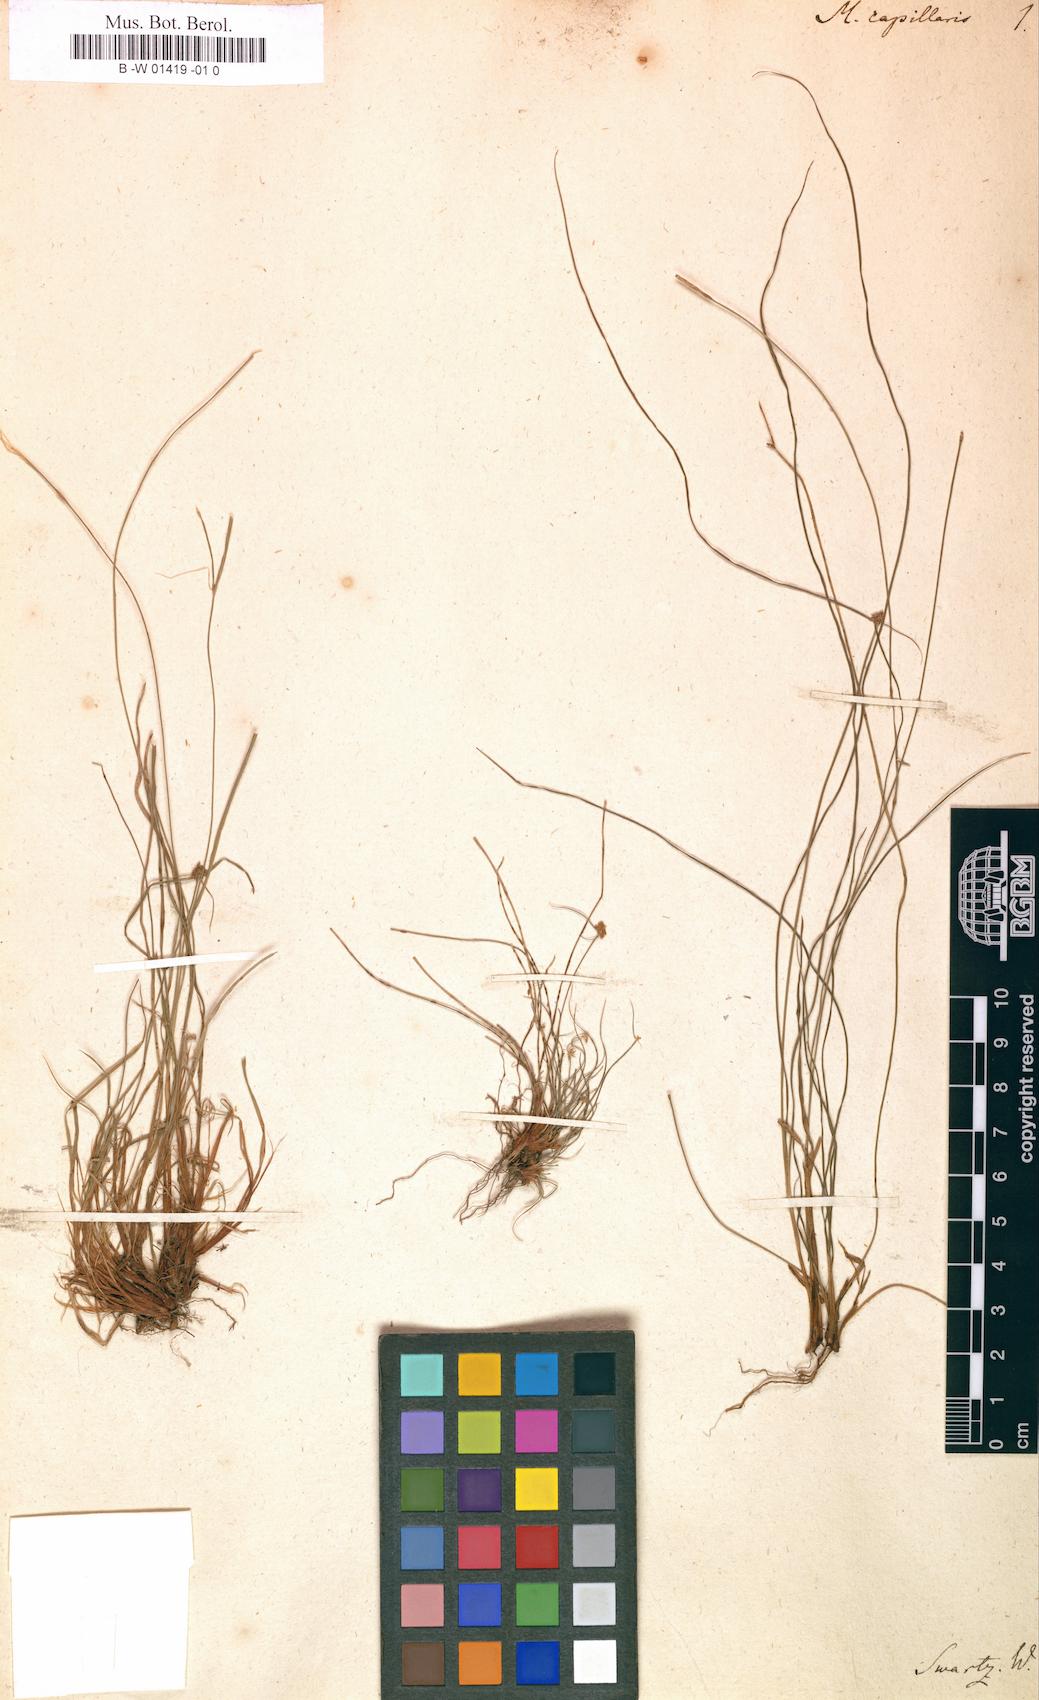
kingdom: Plantae
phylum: Tracheophyta
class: Liliopsida
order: Poales
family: Cyperaceae
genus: Cyperus
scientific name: Cyperus nanus
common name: Indian flatsedge
